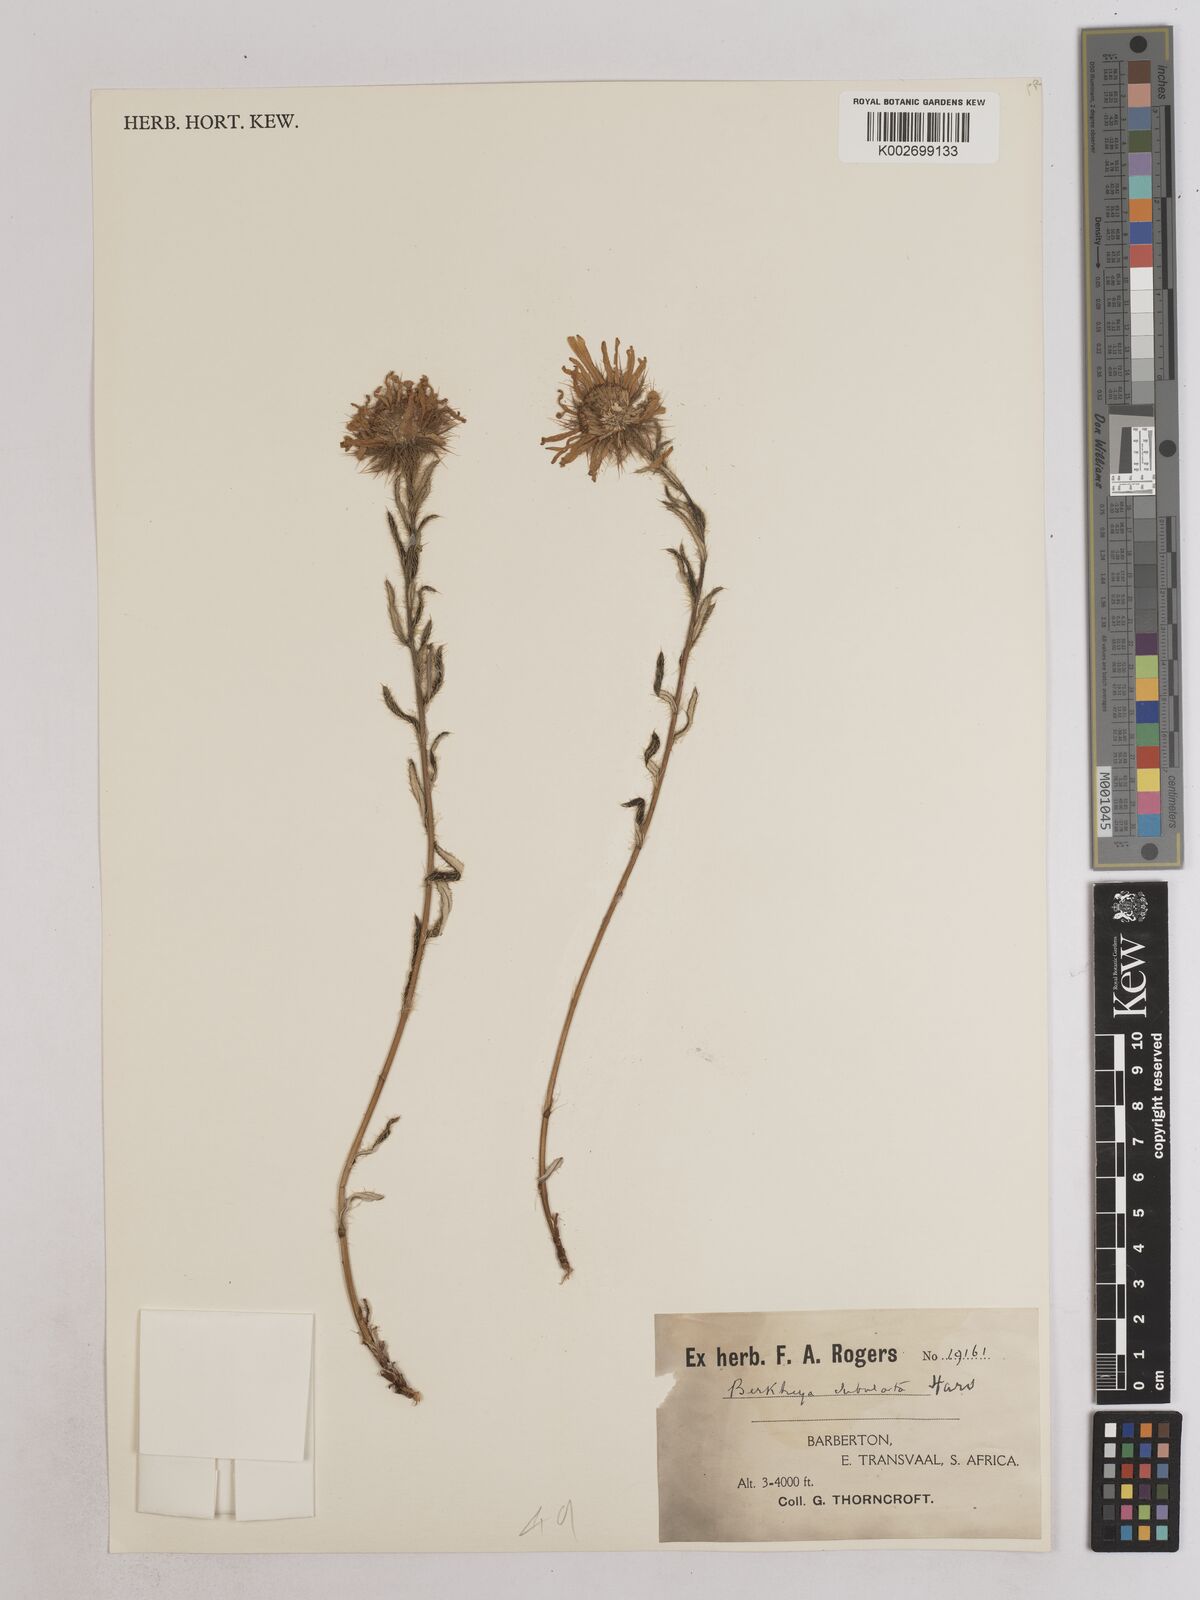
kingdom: Plantae
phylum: Tracheophyta
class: Magnoliopsida
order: Asterales
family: Asteraceae
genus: Berkheya
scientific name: Berkheya insignis
